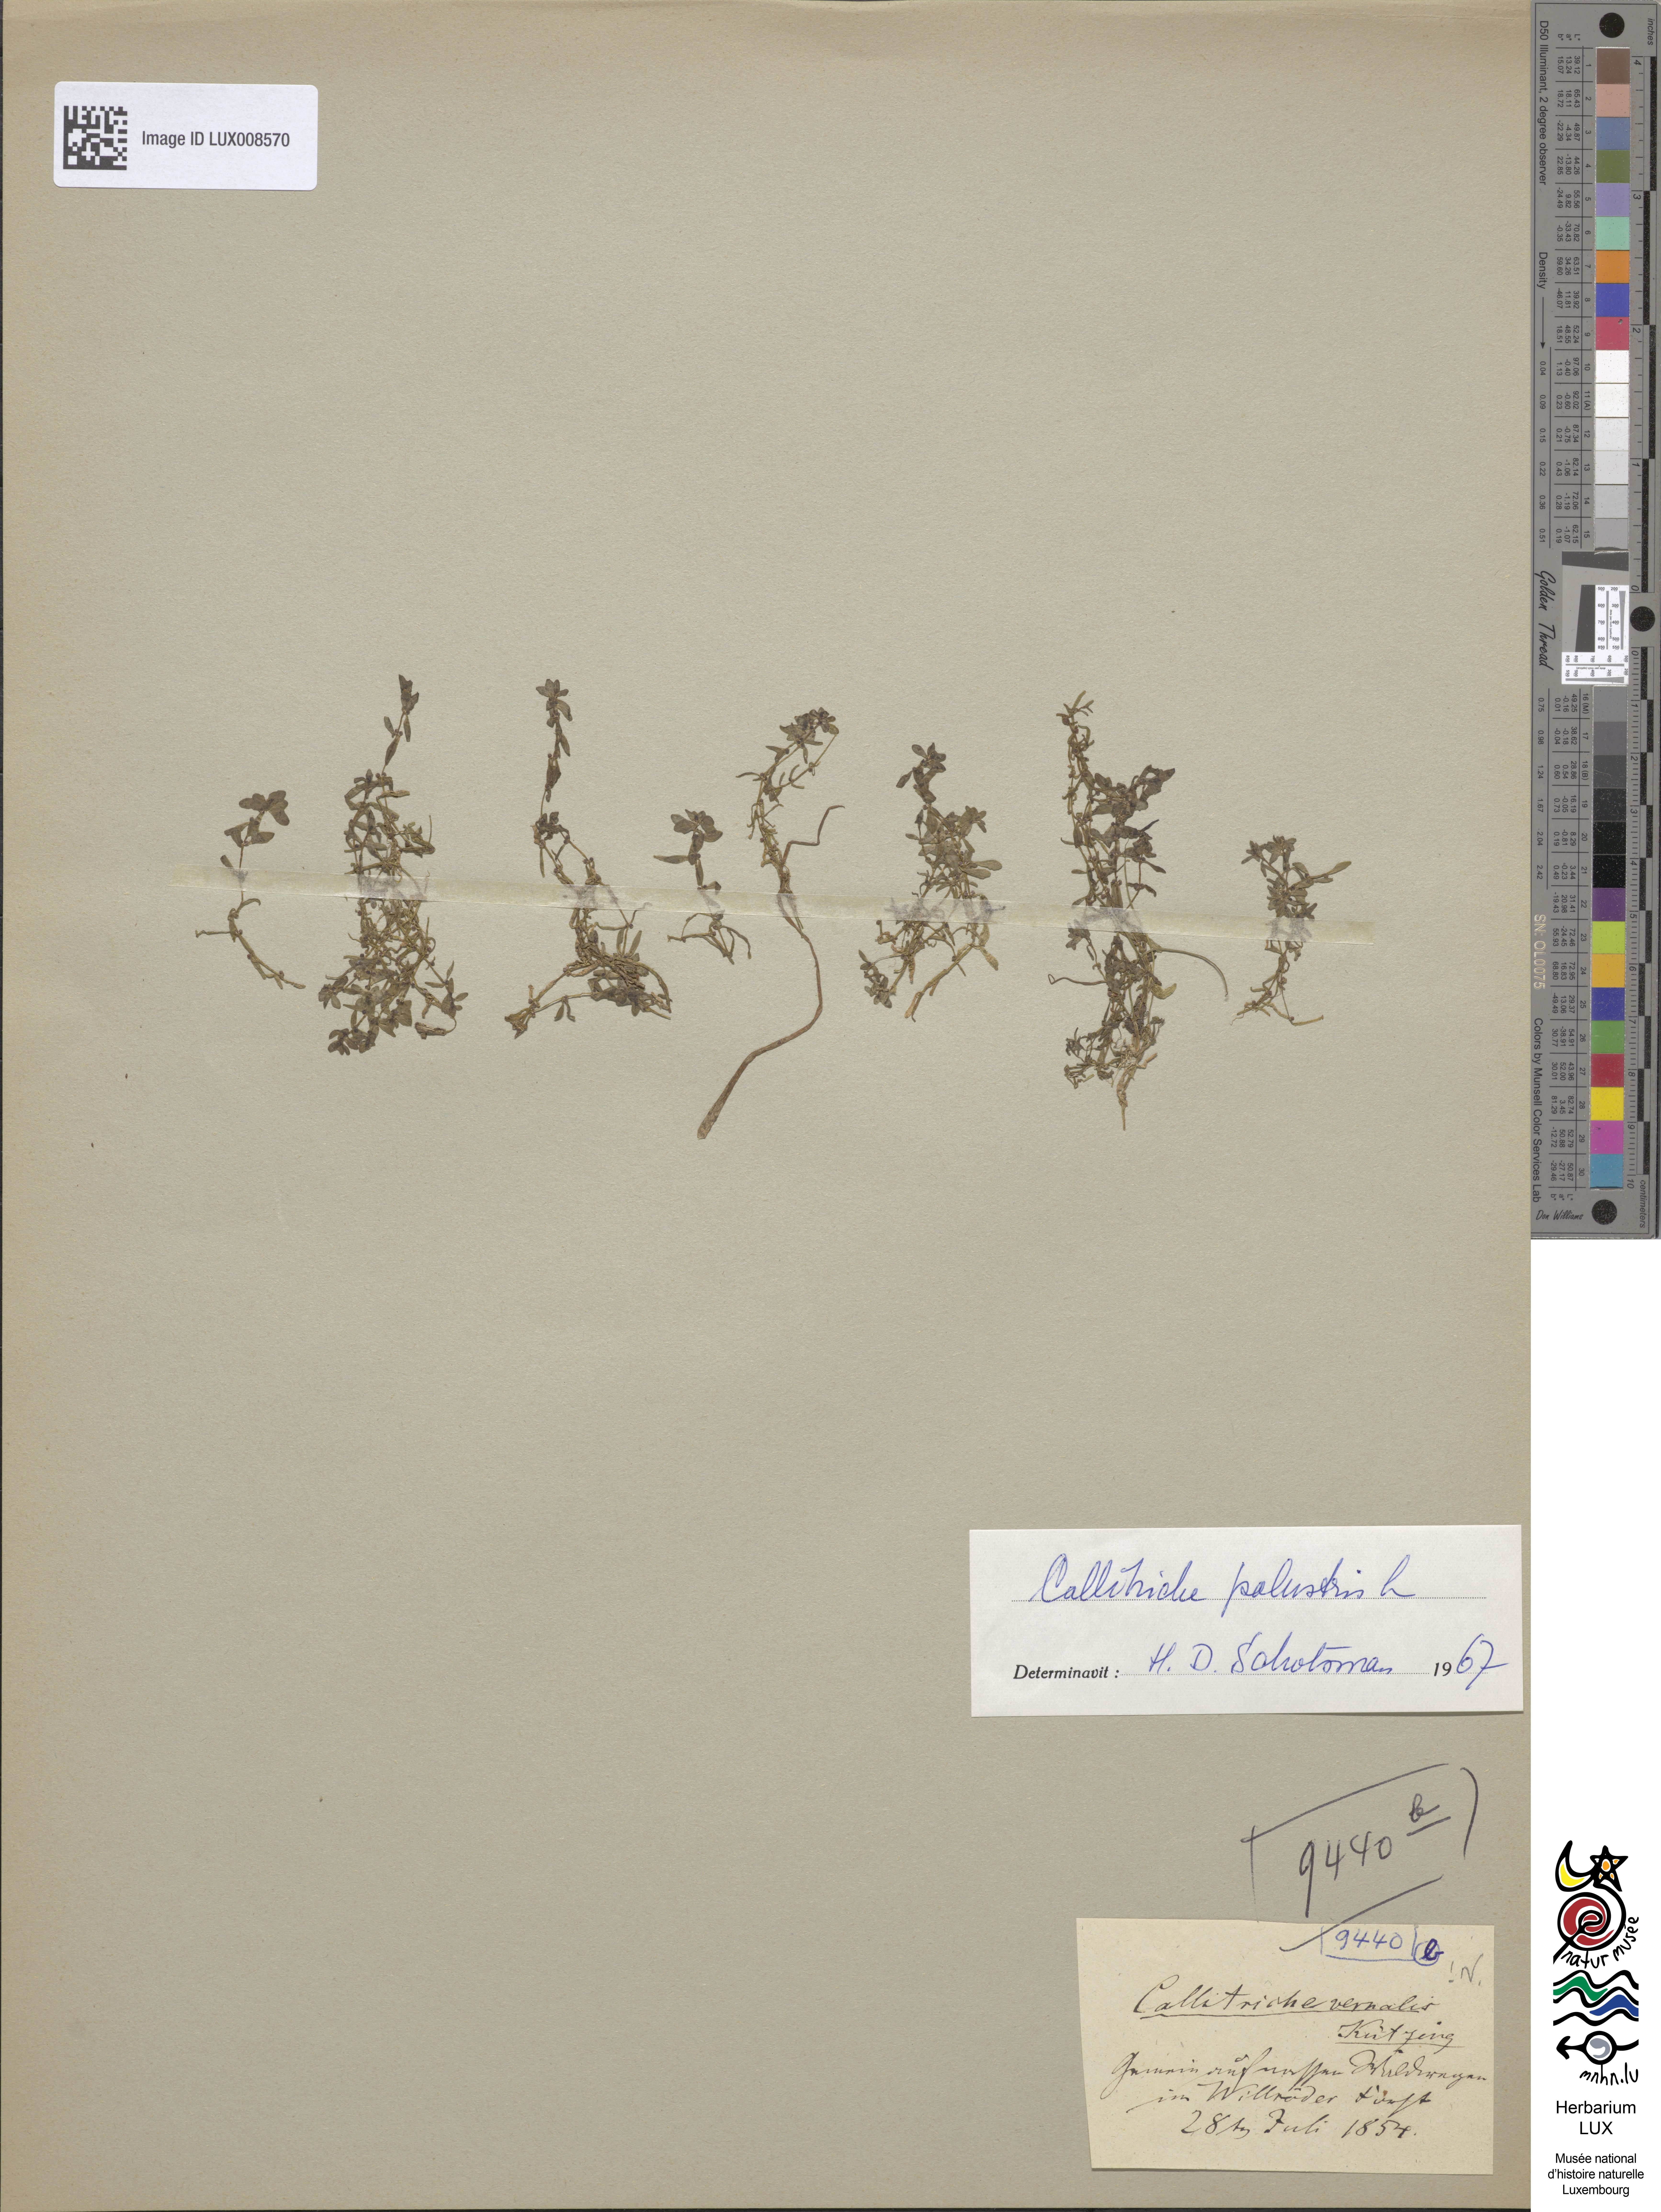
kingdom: Plantae
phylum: Tracheophyta
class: Magnoliopsida
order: Lamiales
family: Plantaginaceae
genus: Callitriche
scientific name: Callitriche palustris
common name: Spring water-starwort
